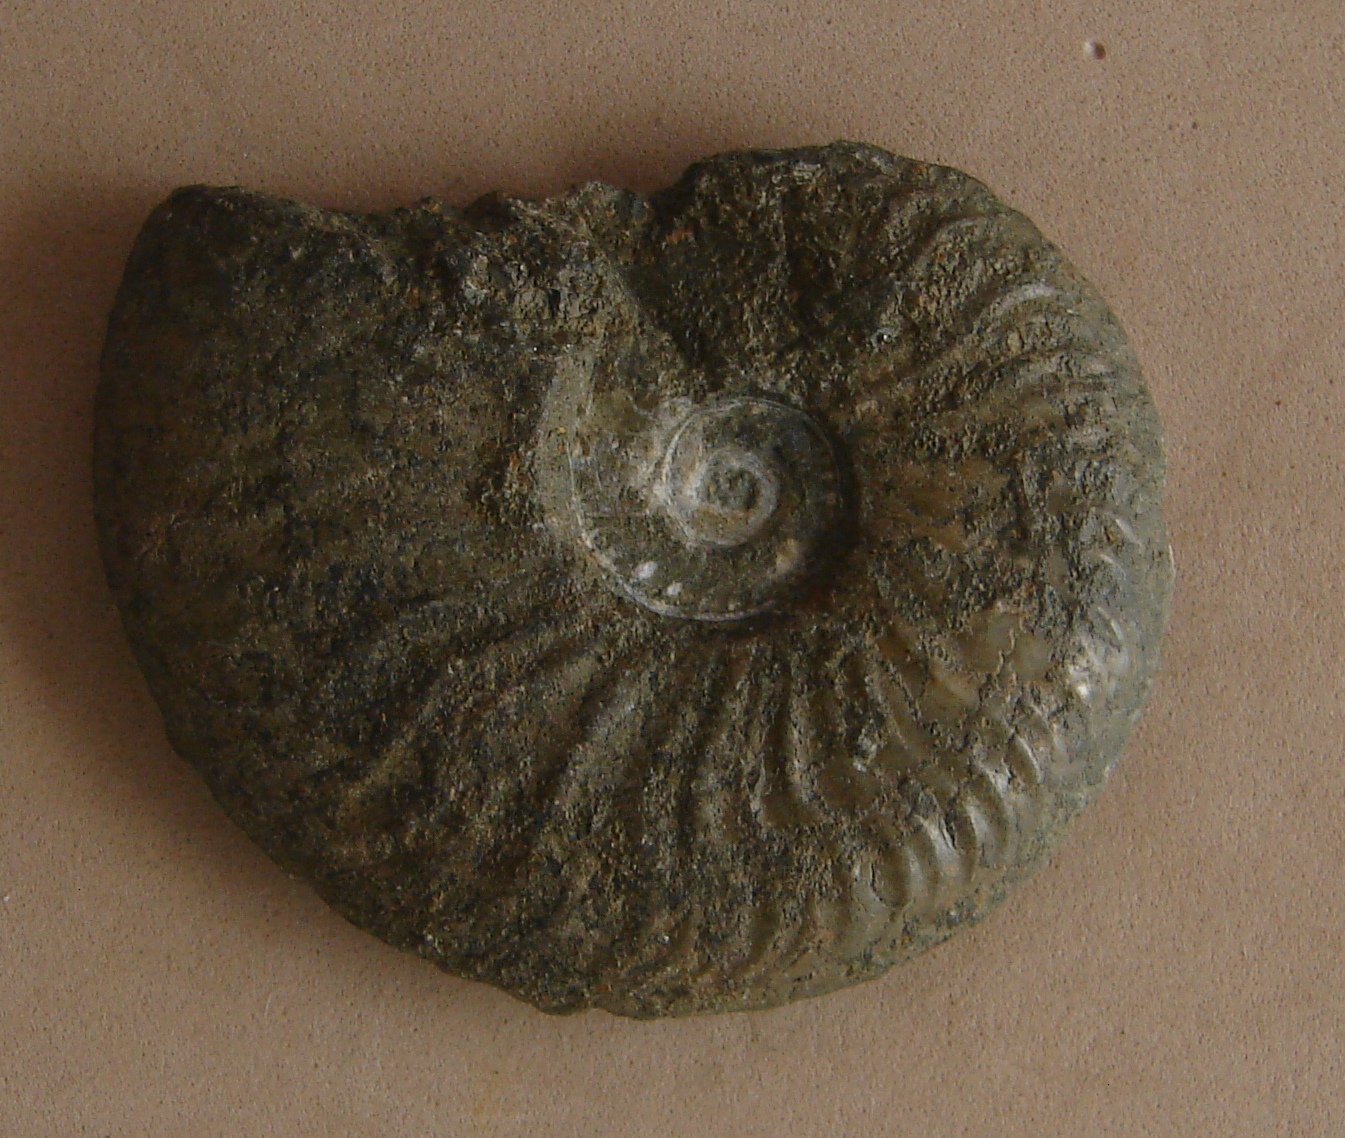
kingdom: Animalia
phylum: Mollusca
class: Cephalopoda
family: Hildoceratidae
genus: Pleydellia
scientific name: Pleydellia aalensis
